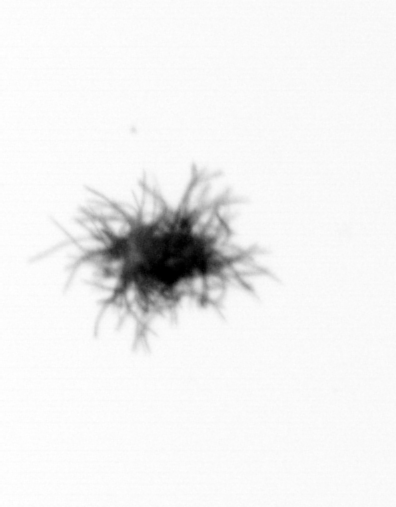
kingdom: Bacteria
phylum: Cyanobacteria
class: Cyanobacteriia
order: Cyanobacteriales
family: Microcoleaceae
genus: Trichodesmium
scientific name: Trichodesmium
